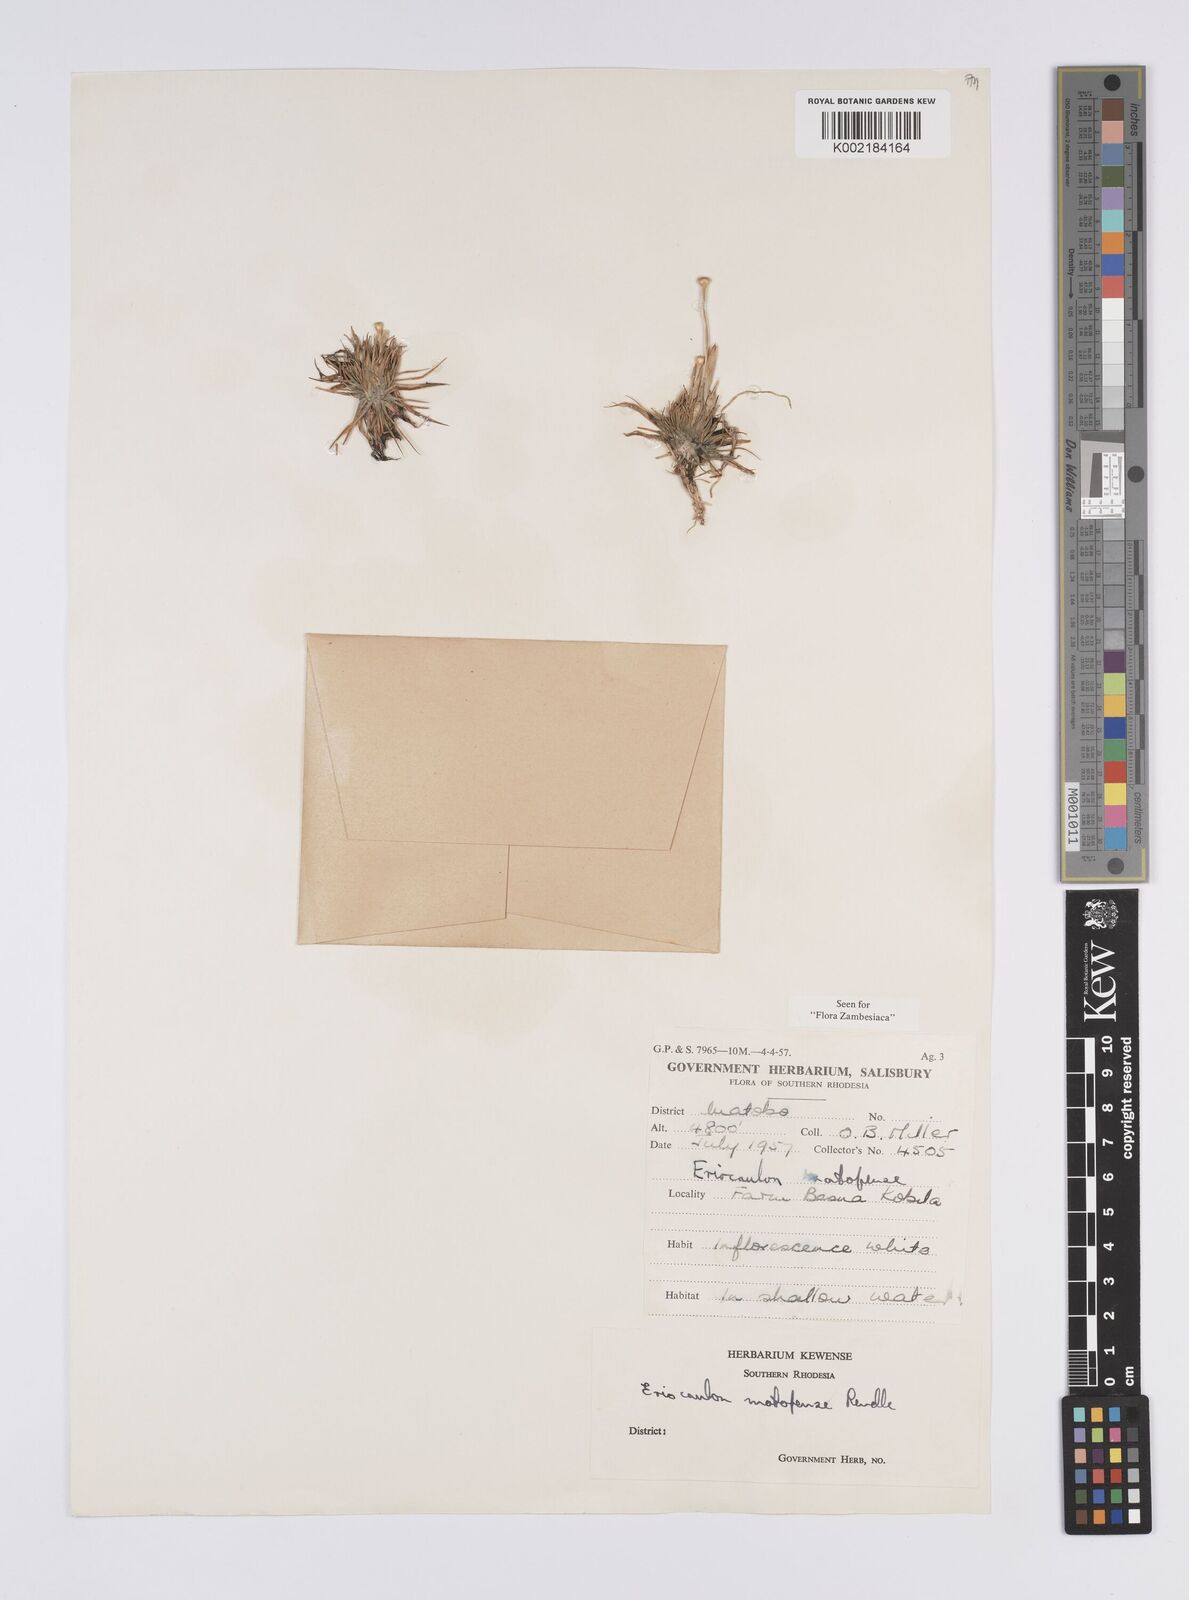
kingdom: Plantae
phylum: Tracheophyta
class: Liliopsida
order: Poales
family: Eriocaulaceae
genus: Eriocaulon
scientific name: Eriocaulon matopense
